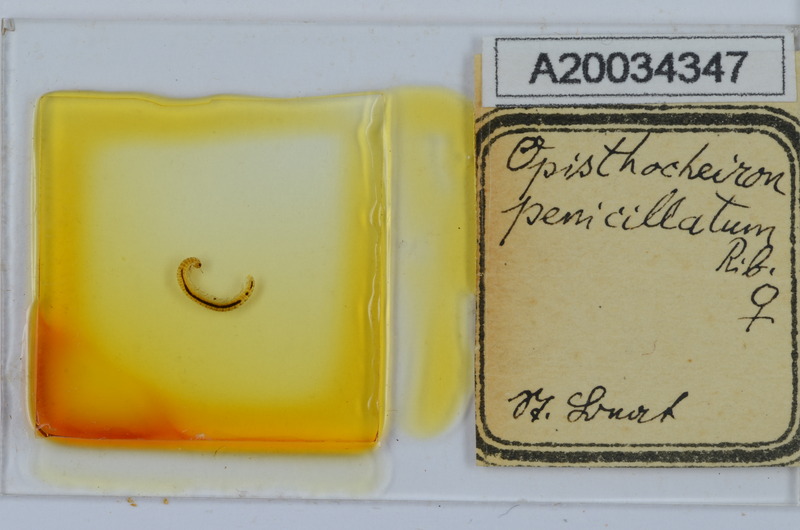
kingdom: Animalia
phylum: Arthropoda
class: Diplopoda
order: Chordeumatida
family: Opisthocheiridae
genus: Opisthocheiron
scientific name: Opisthocheiron penicillatum
